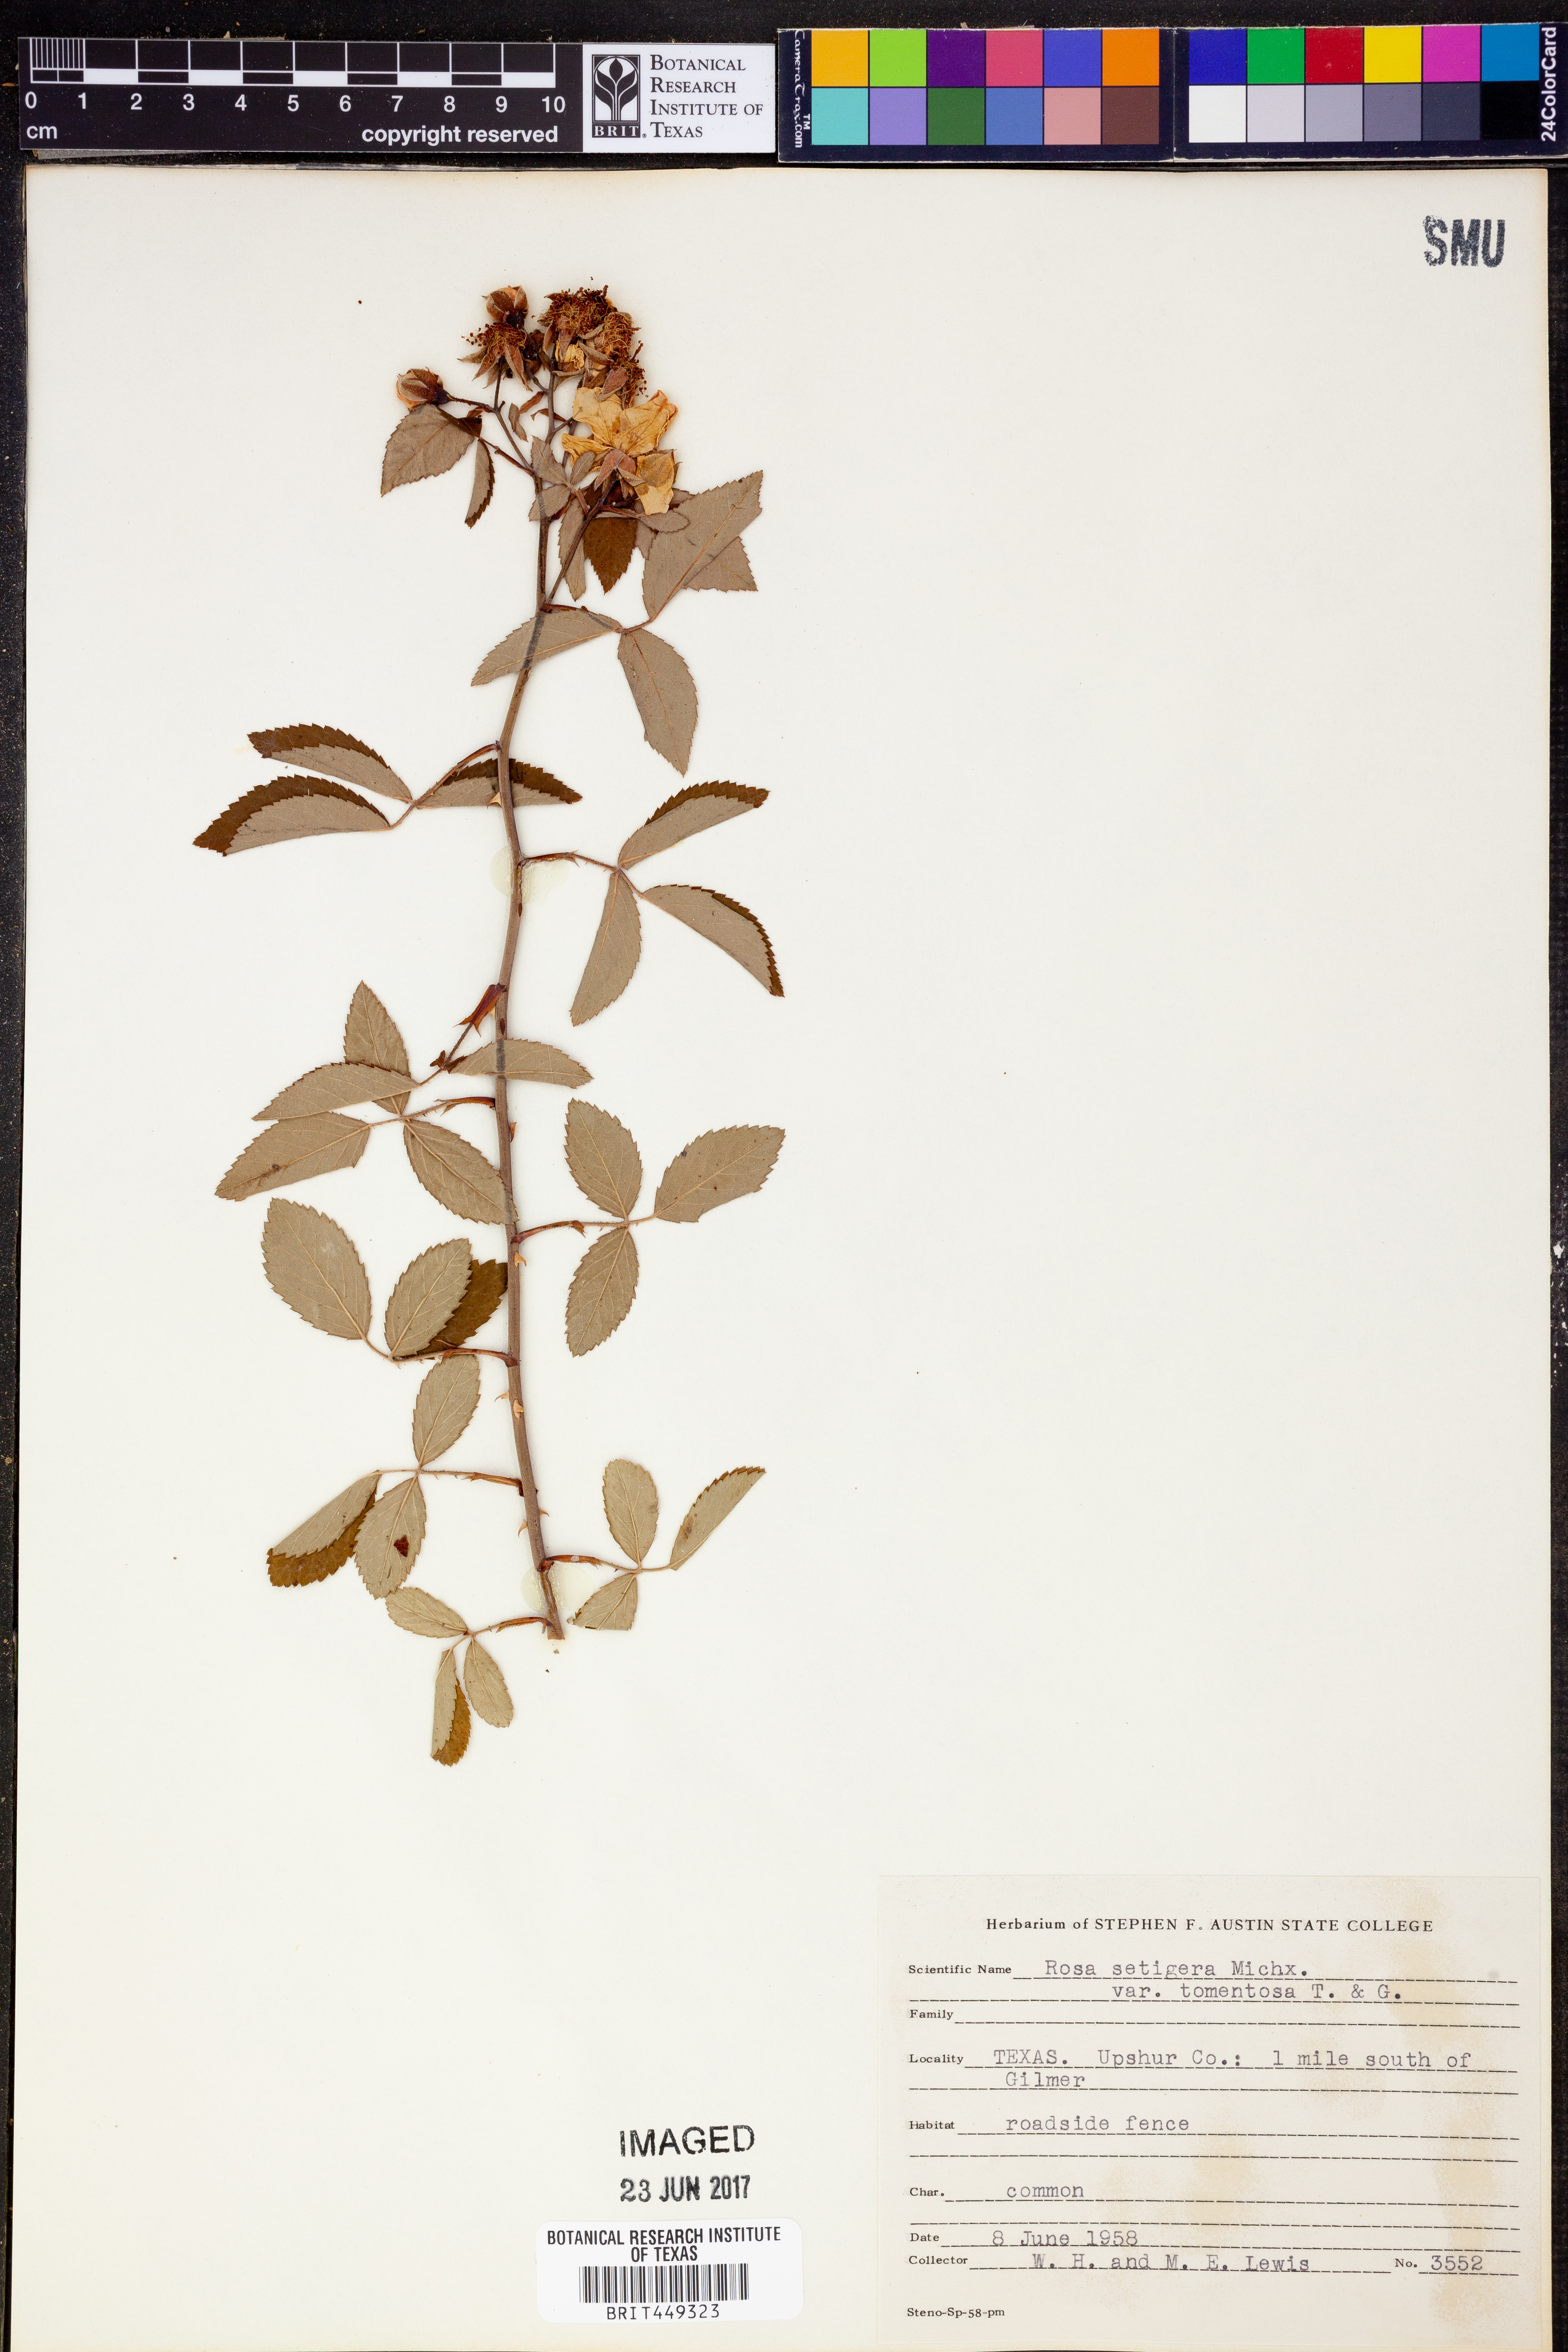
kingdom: Plantae
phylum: Tracheophyta
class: Magnoliopsida
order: Rosales
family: Rosaceae
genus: Rosa
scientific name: Rosa setigera
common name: Prairie rose
